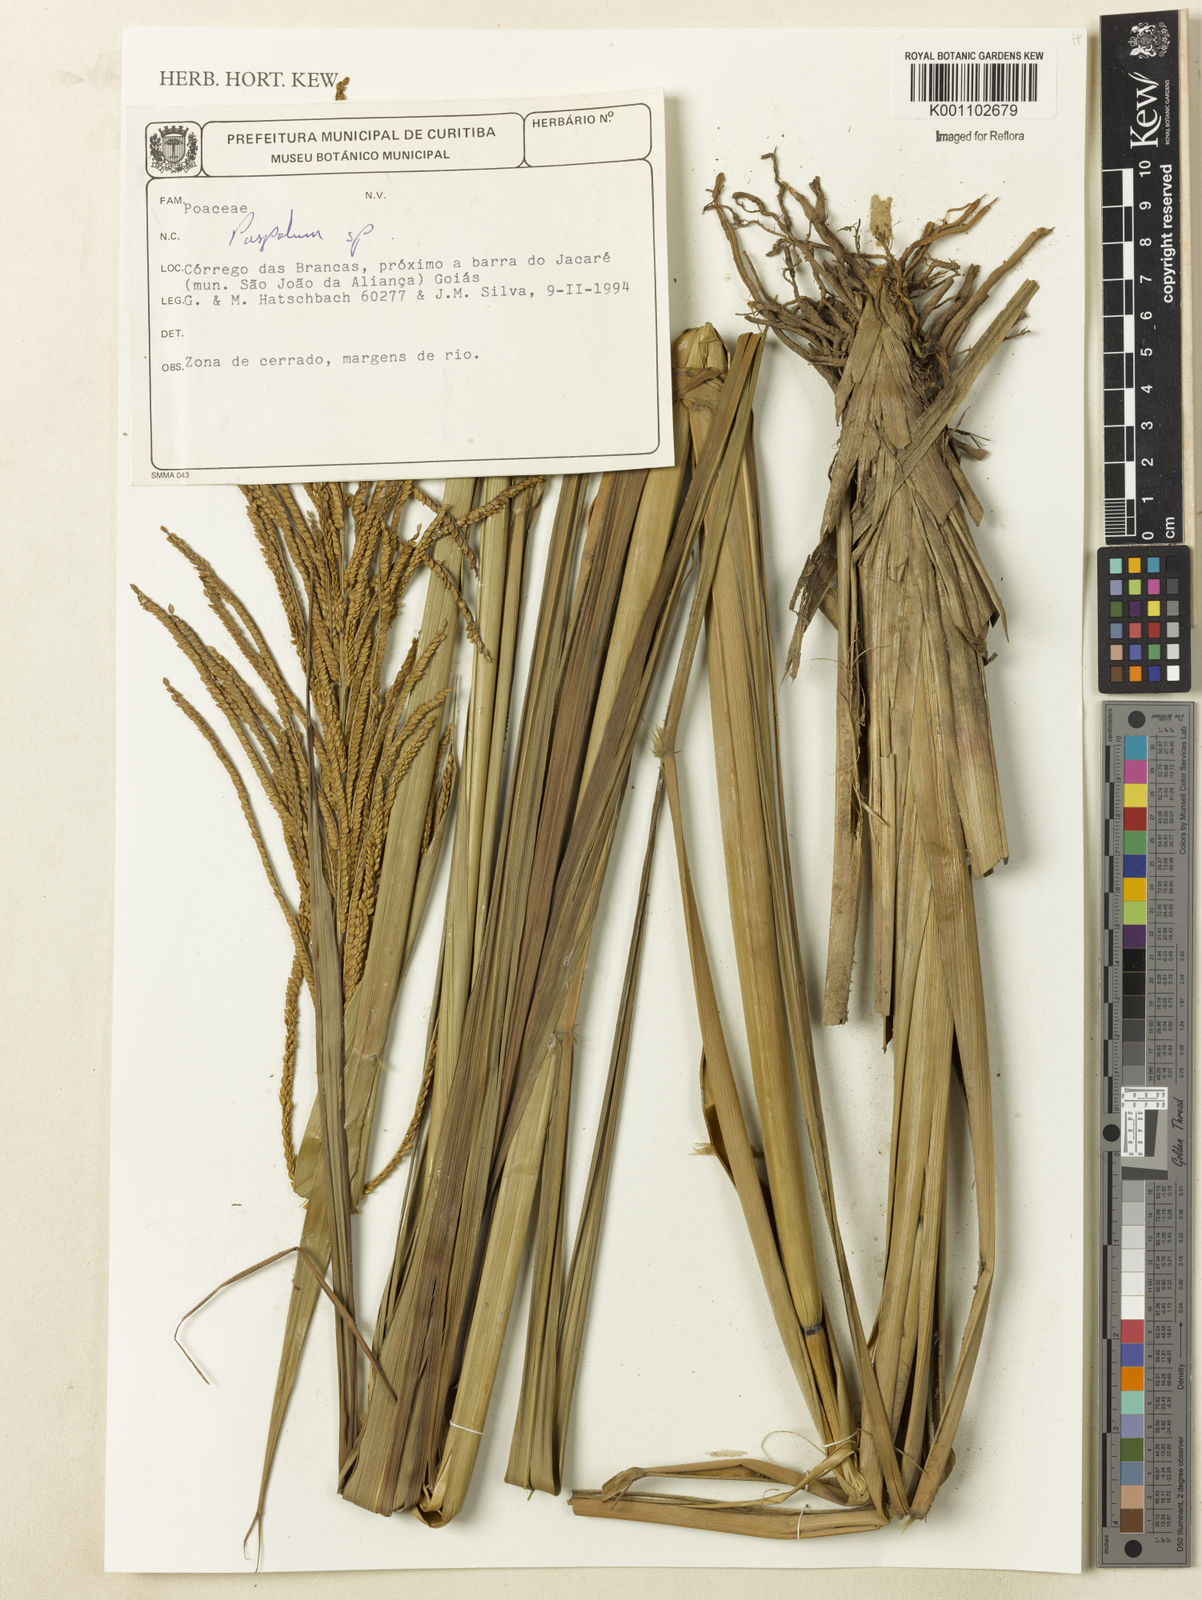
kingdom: Plantae
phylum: Tracheophyta
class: Liliopsida
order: Poales
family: Poaceae
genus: Paspalum
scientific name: Paspalum
